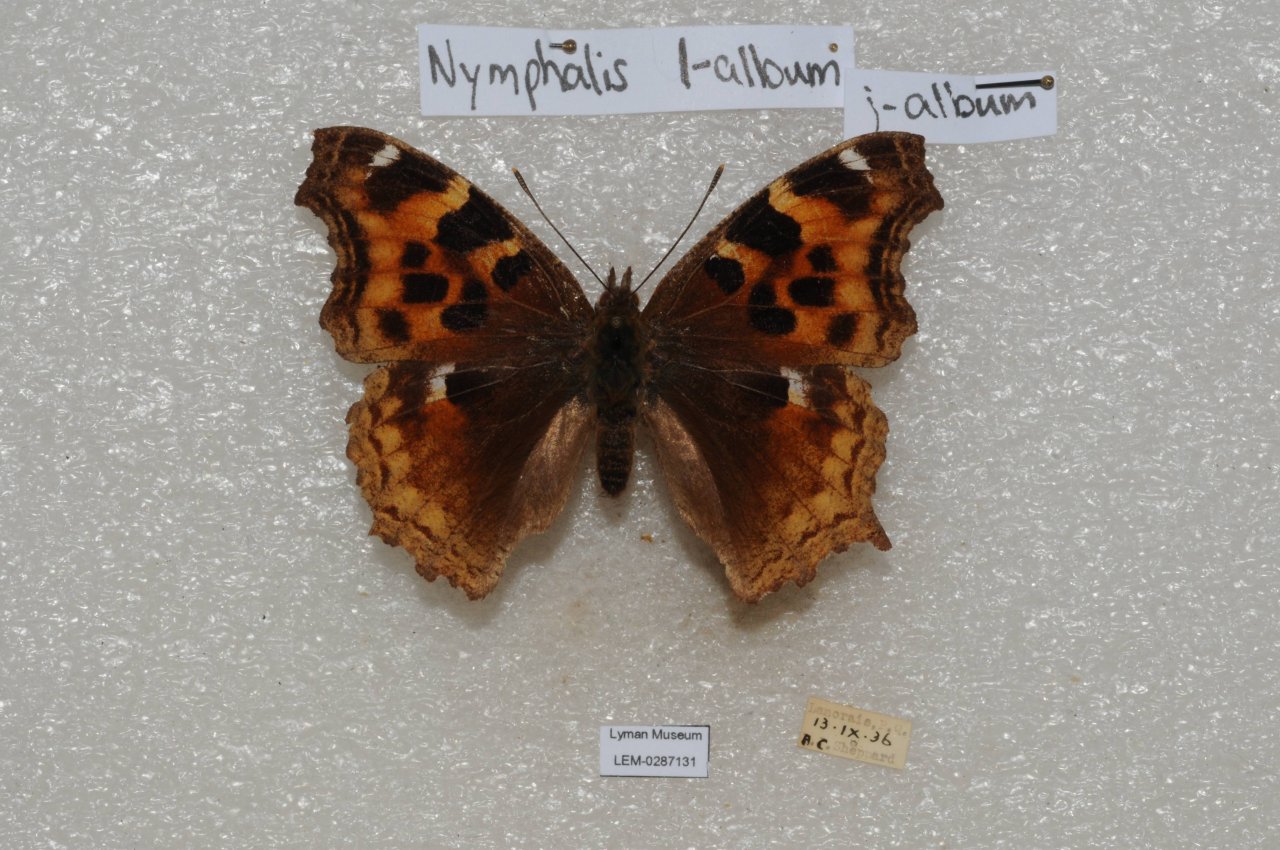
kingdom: Animalia
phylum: Arthropoda
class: Insecta
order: Lepidoptera
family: Nymphalidae
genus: Polygonia
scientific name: Polygonia vaualbum
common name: Compton Tortoiseshell
